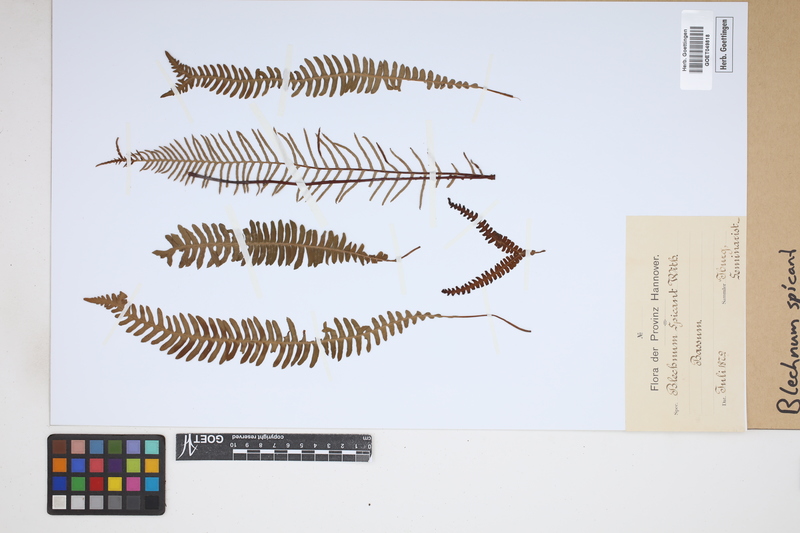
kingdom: Plantae
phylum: Tracheophyta
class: Polypodiopsida
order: Polypodiales
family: Blechnaceae
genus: Struthiopteris
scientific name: Struthiopteris spicant
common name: Deer fern
